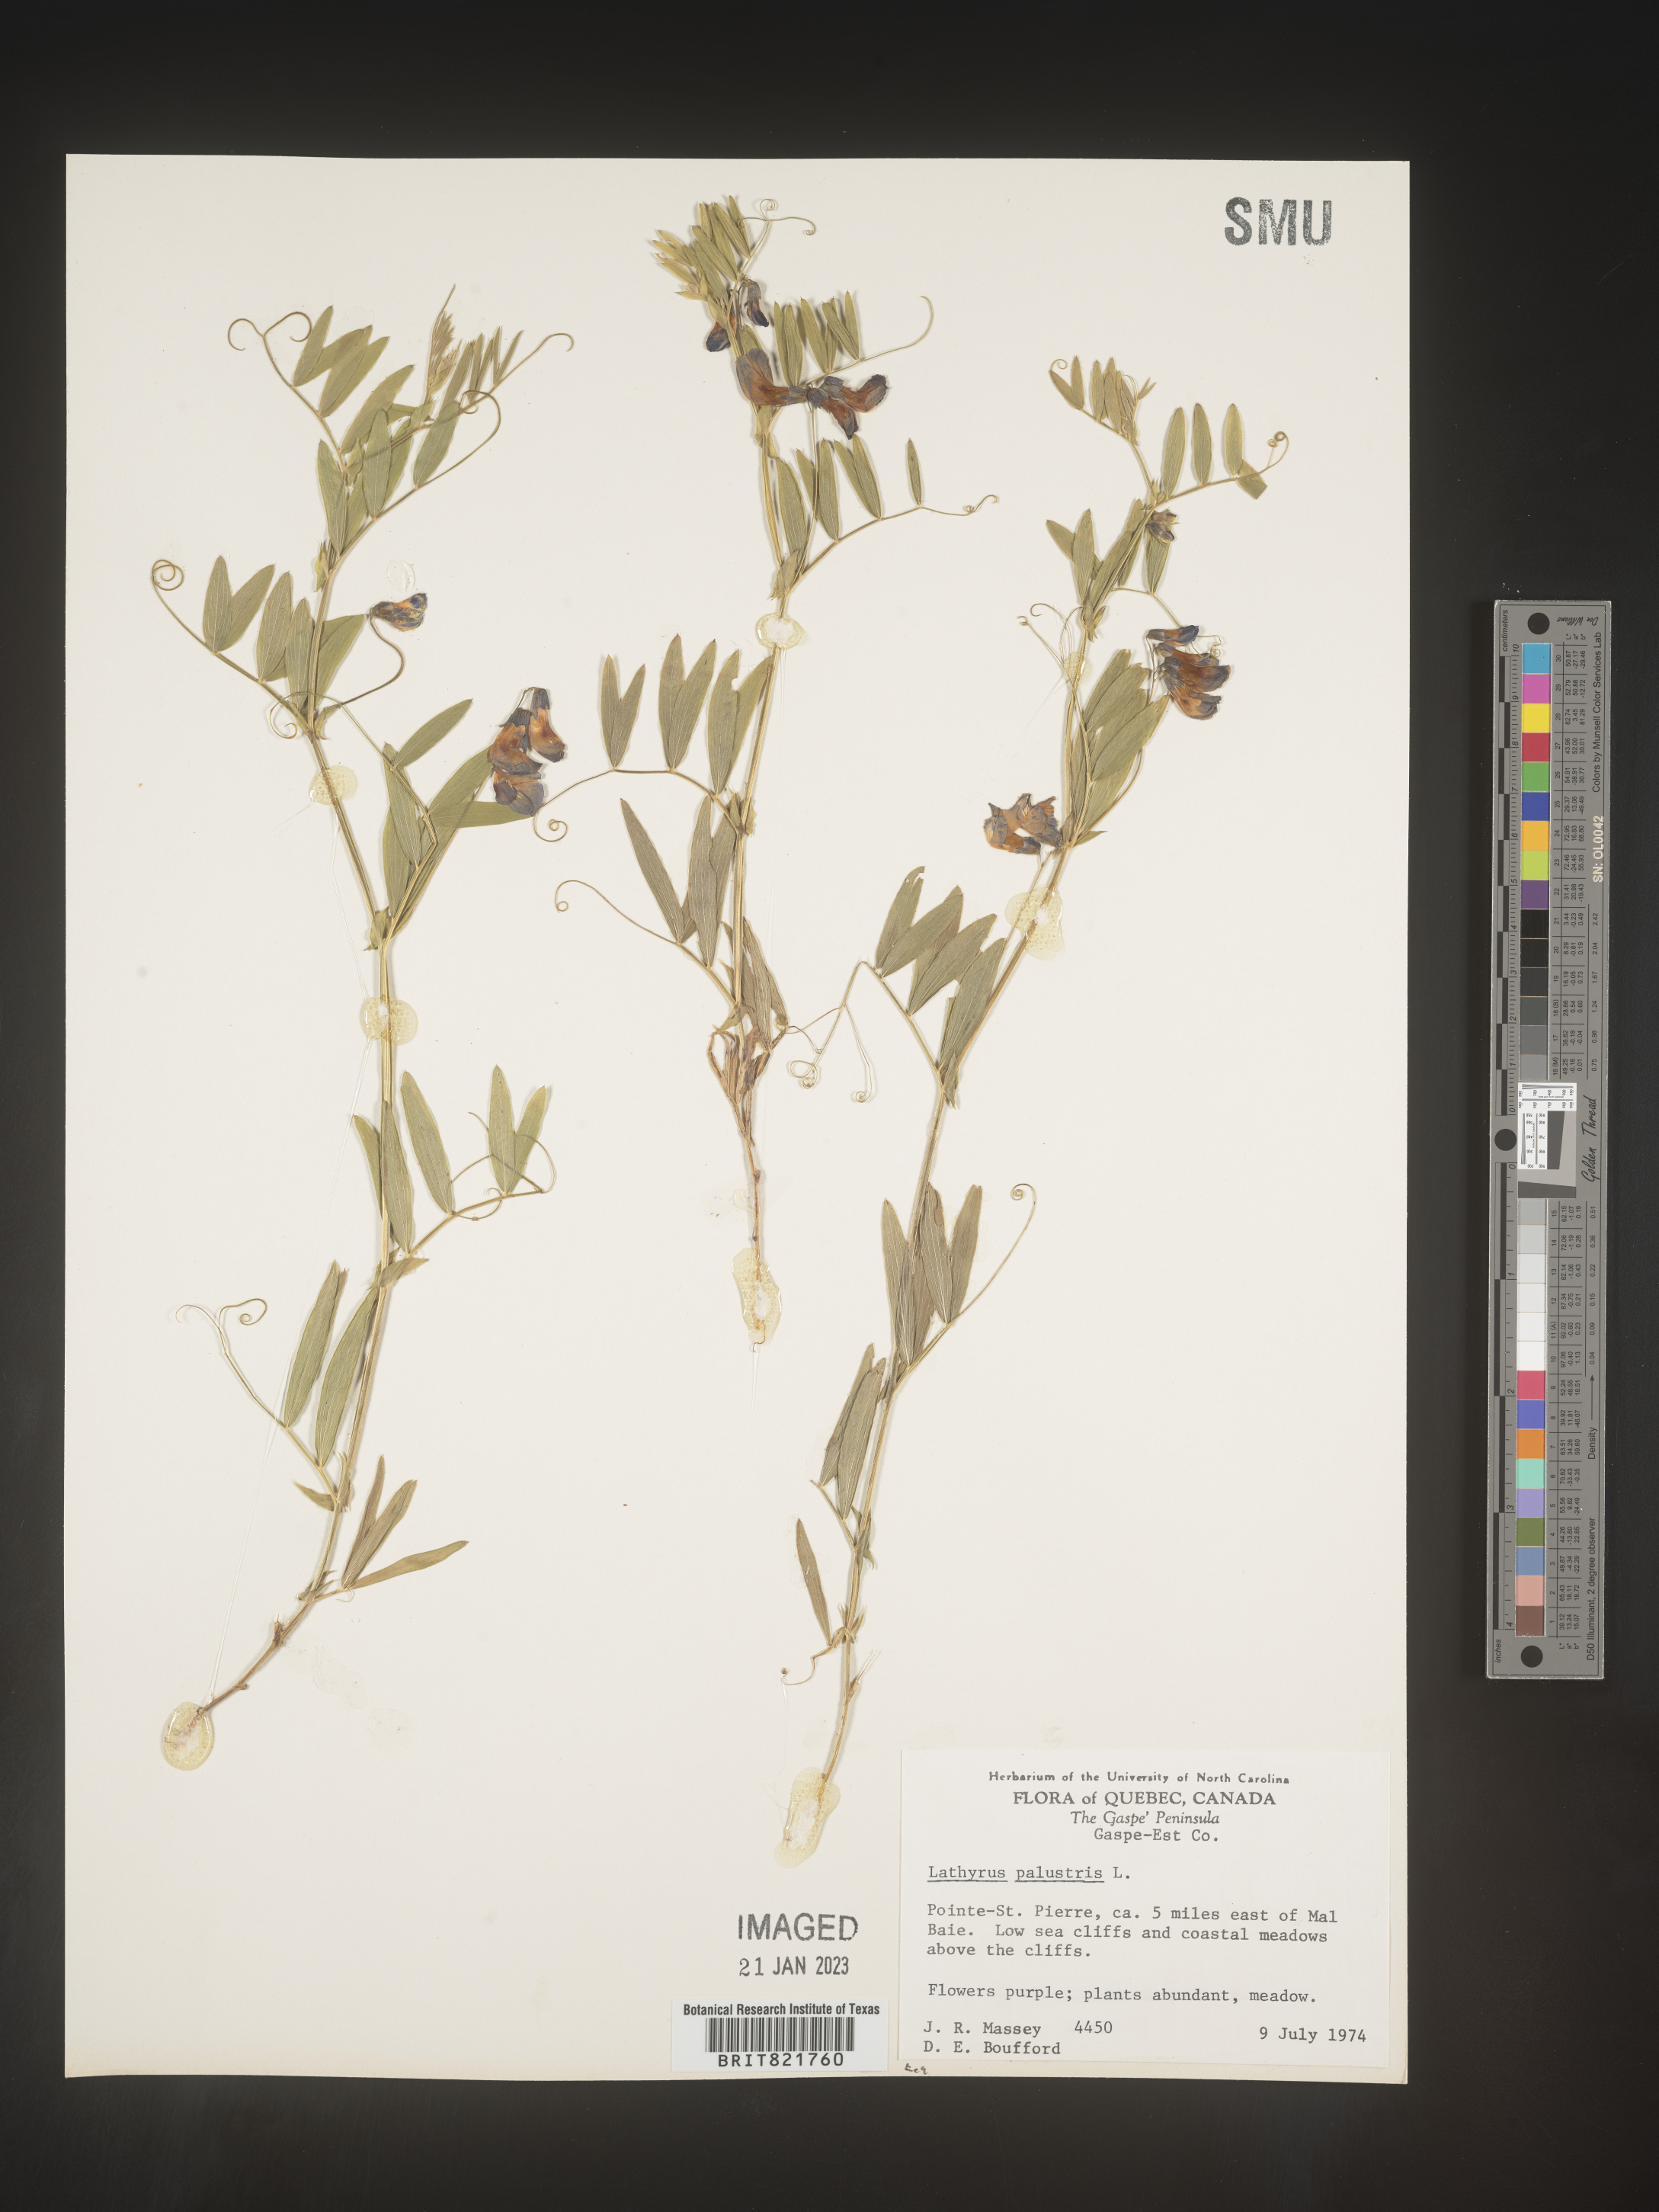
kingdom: Plantae
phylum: Tracheophyta
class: Magnoliopsida
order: Fabales
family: Fabaceae
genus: Lathyrus
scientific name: Lathyrus palustris
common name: Marsh pea
